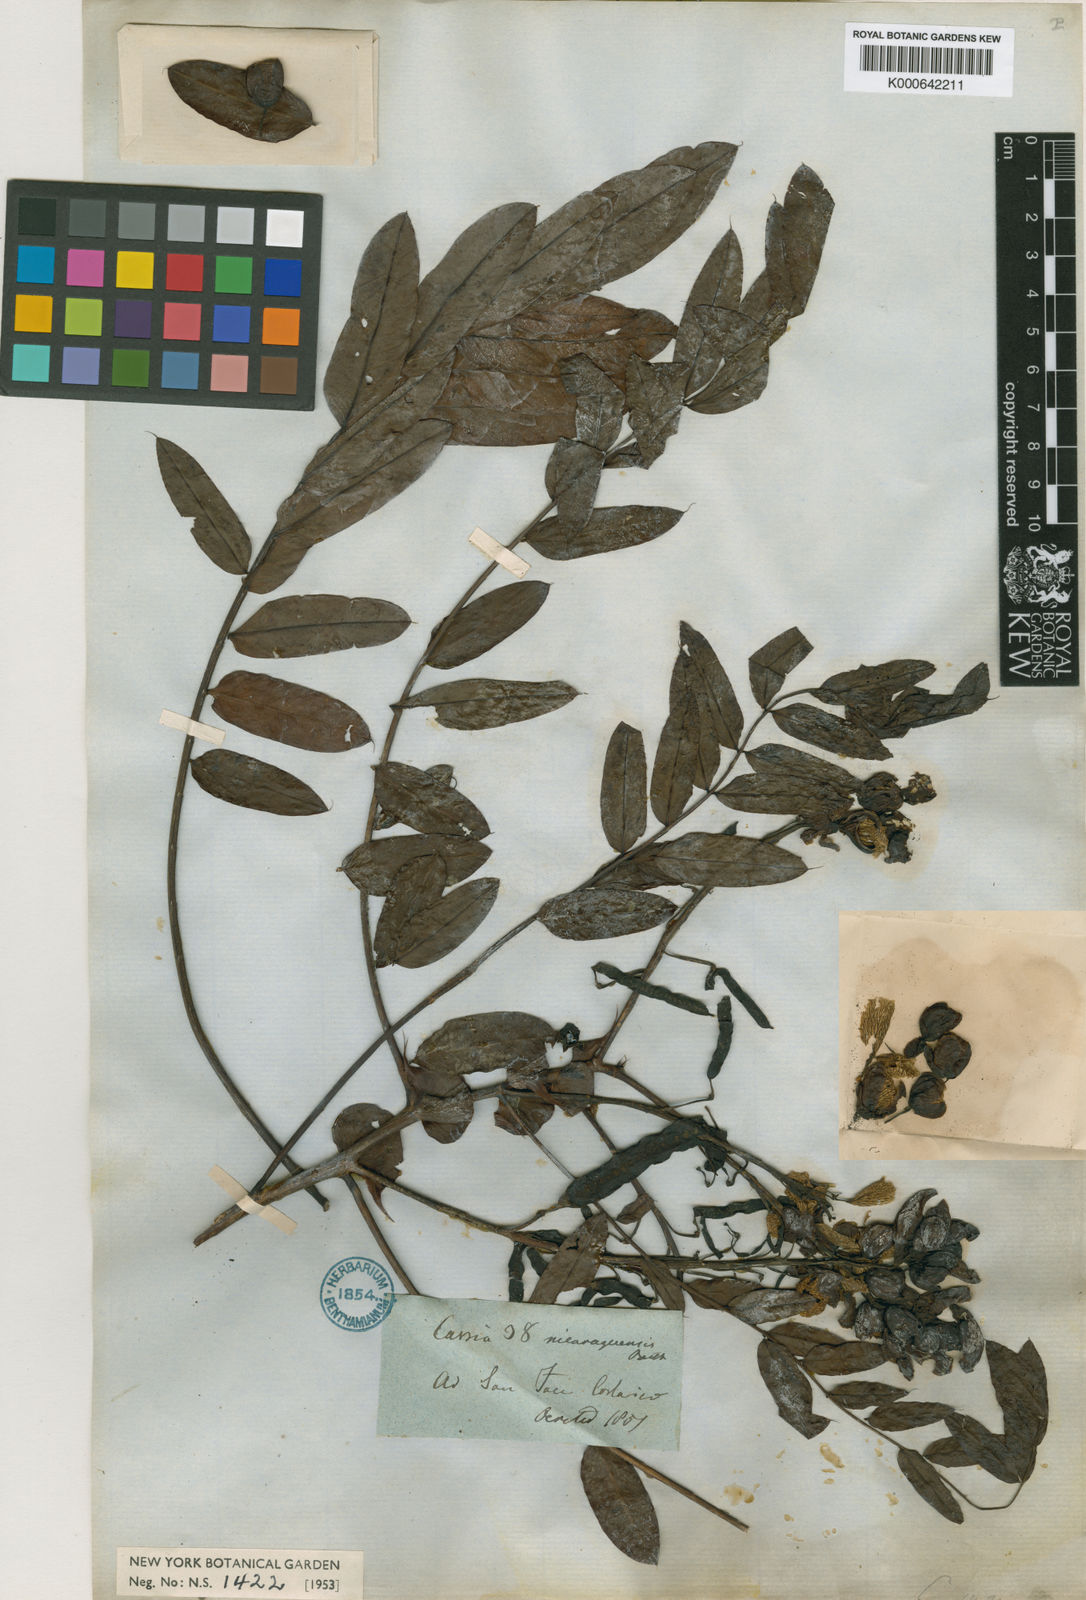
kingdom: Plantae
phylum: Tracheophyta
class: Magnoliopsida
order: Fabales
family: Fabaceae
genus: Senna
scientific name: Senna nicaraguensis
